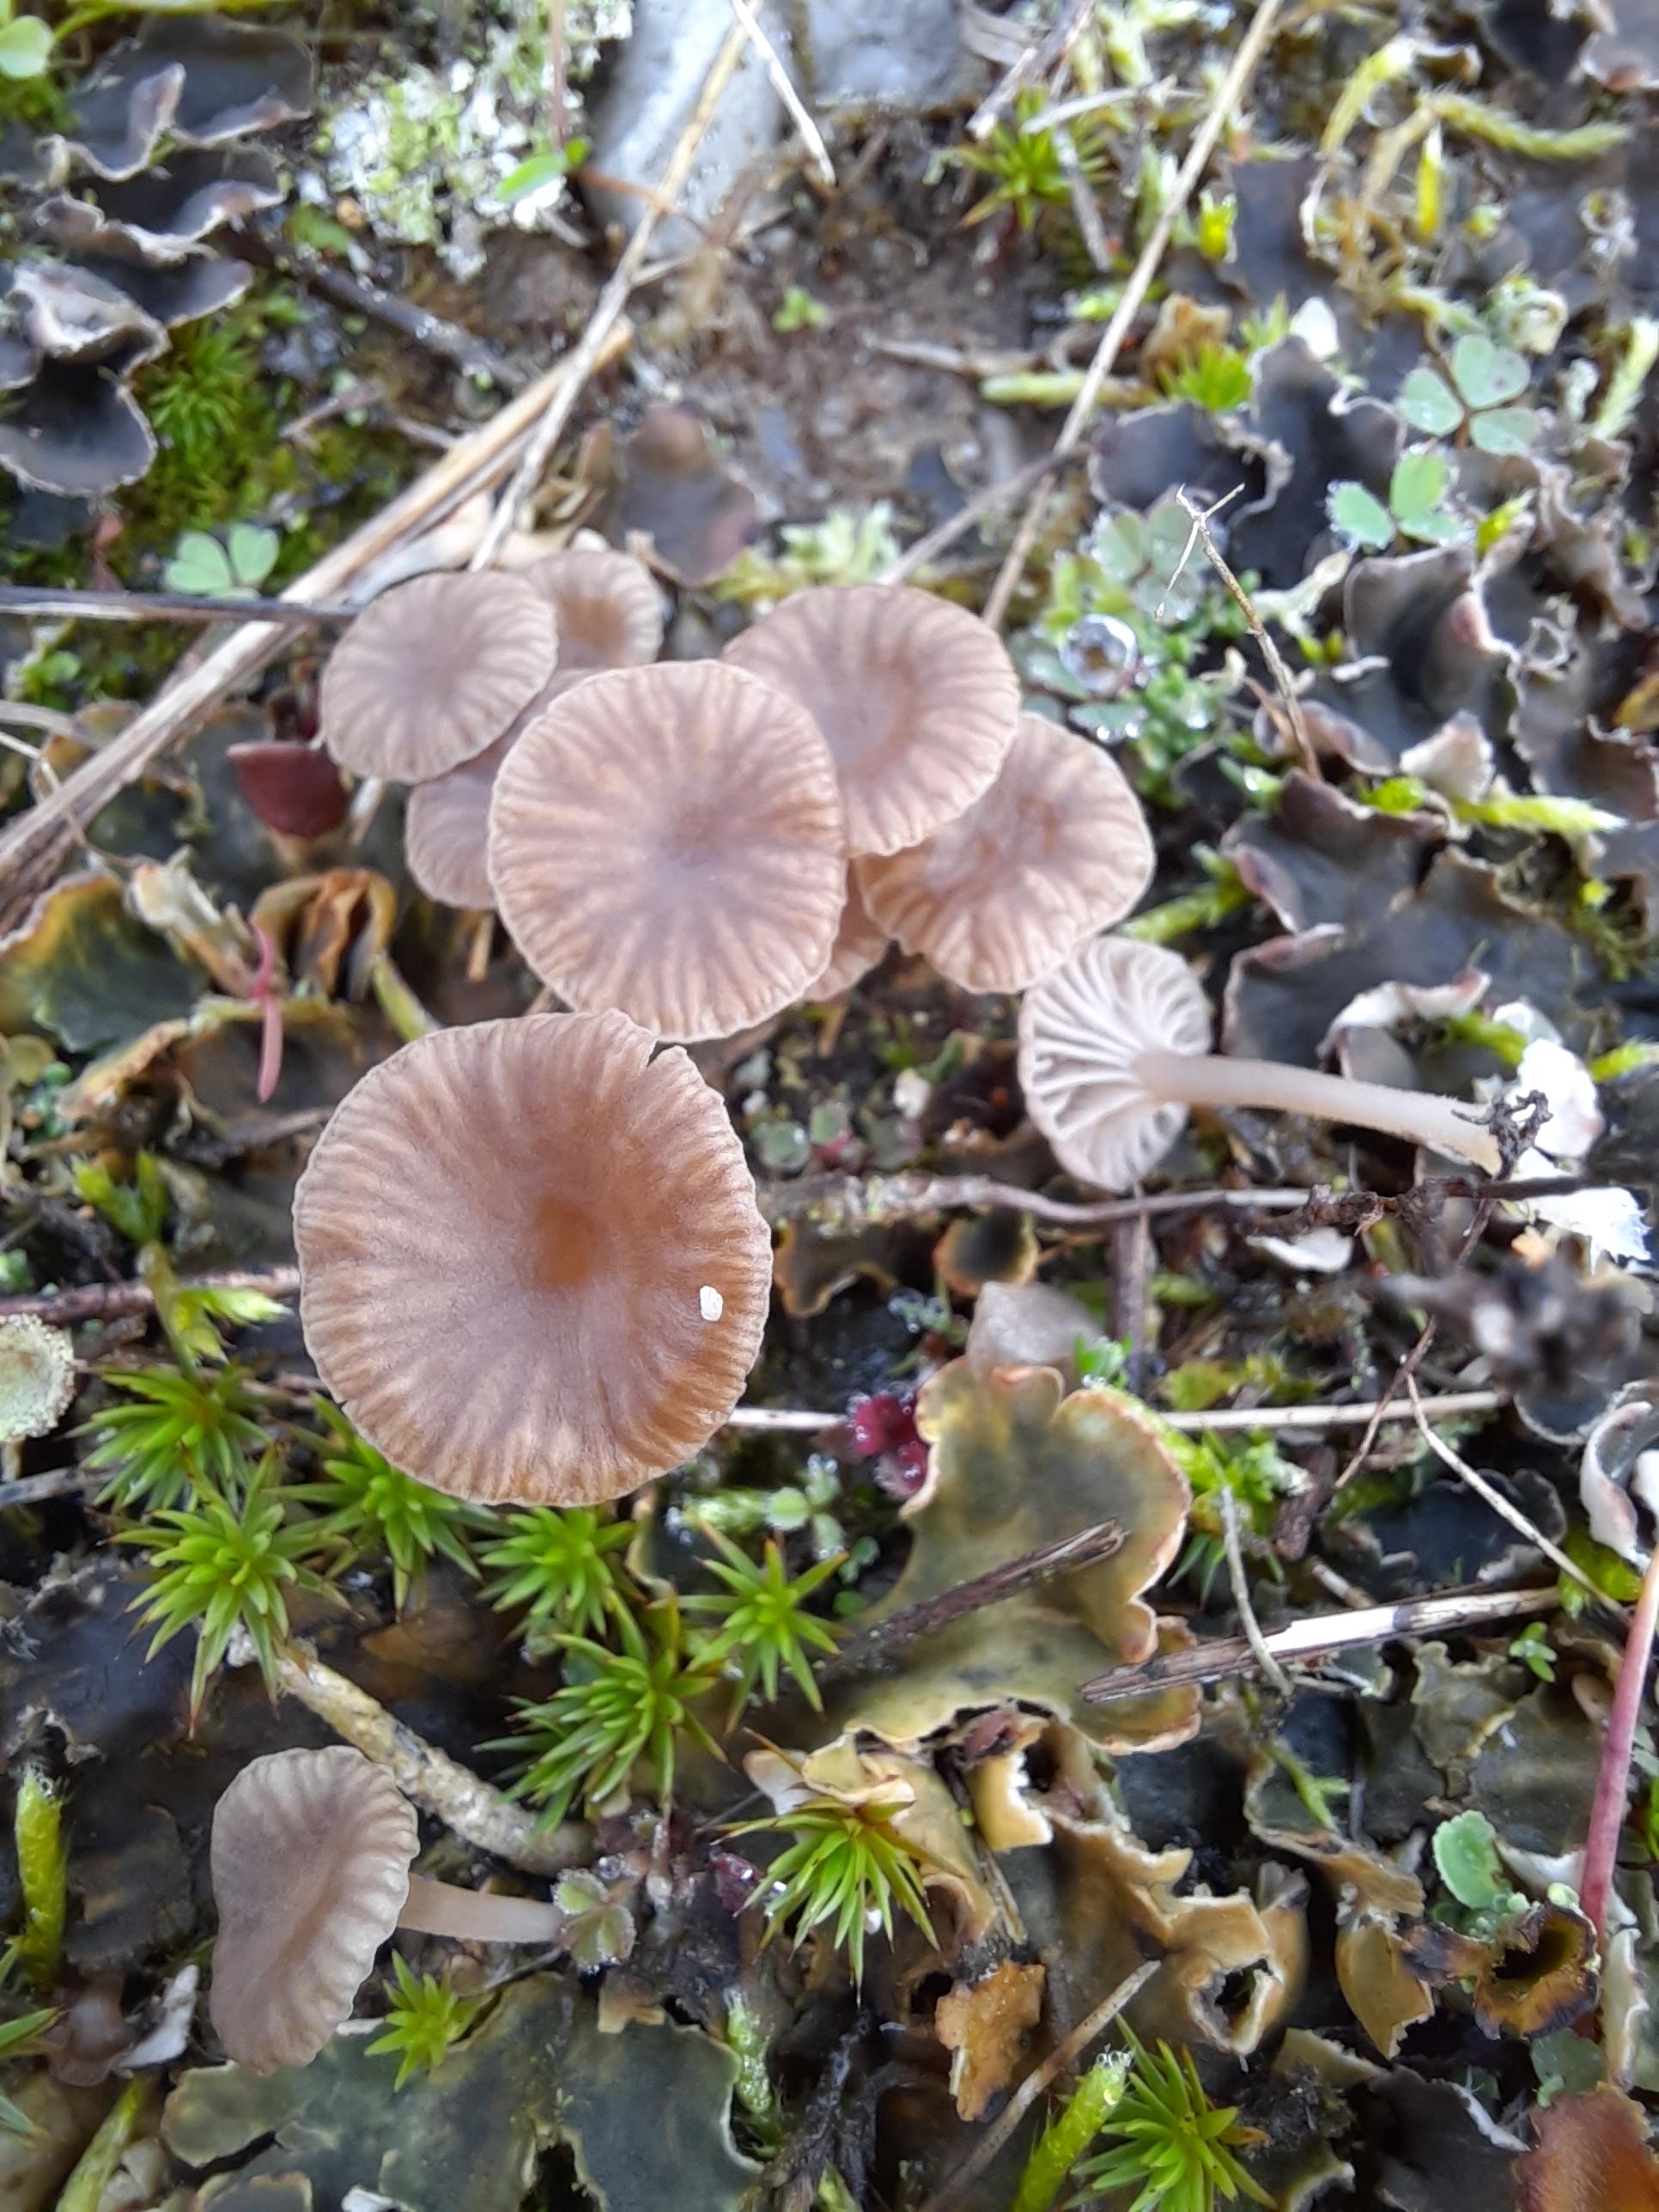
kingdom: Fungi
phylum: Basidiomycota
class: Agaricomycetes
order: Agaricales
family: Hygrophoraceae
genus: Arrhenia
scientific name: Arrhenia peltigerina
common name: skjoldlav-fontænehat
